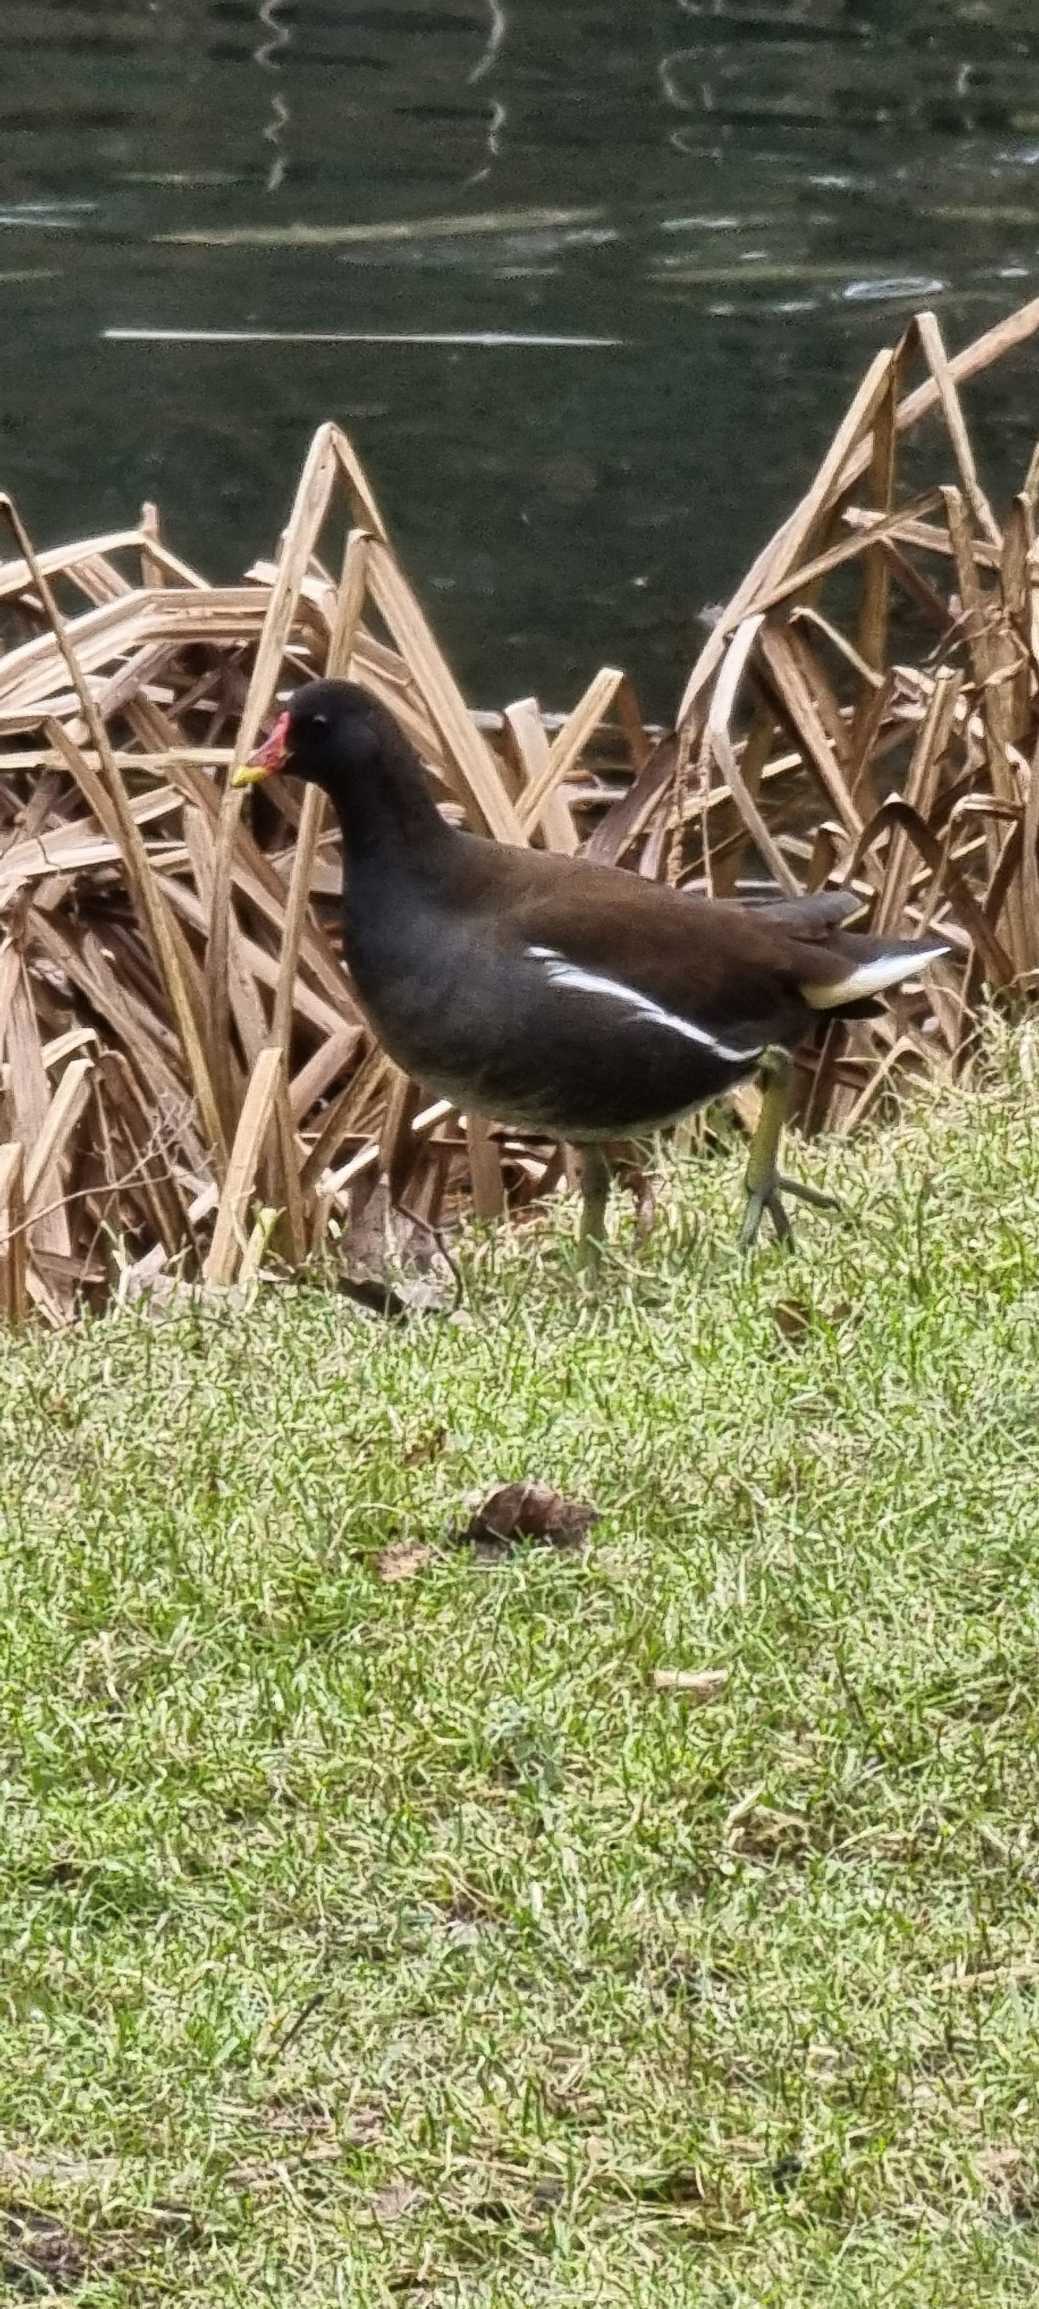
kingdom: Animalia
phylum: Chordata
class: Aves
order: Gruiformes
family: Rallidae
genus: Gallinula
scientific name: Gallinula chloropus
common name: Grønbenet rørhøne
